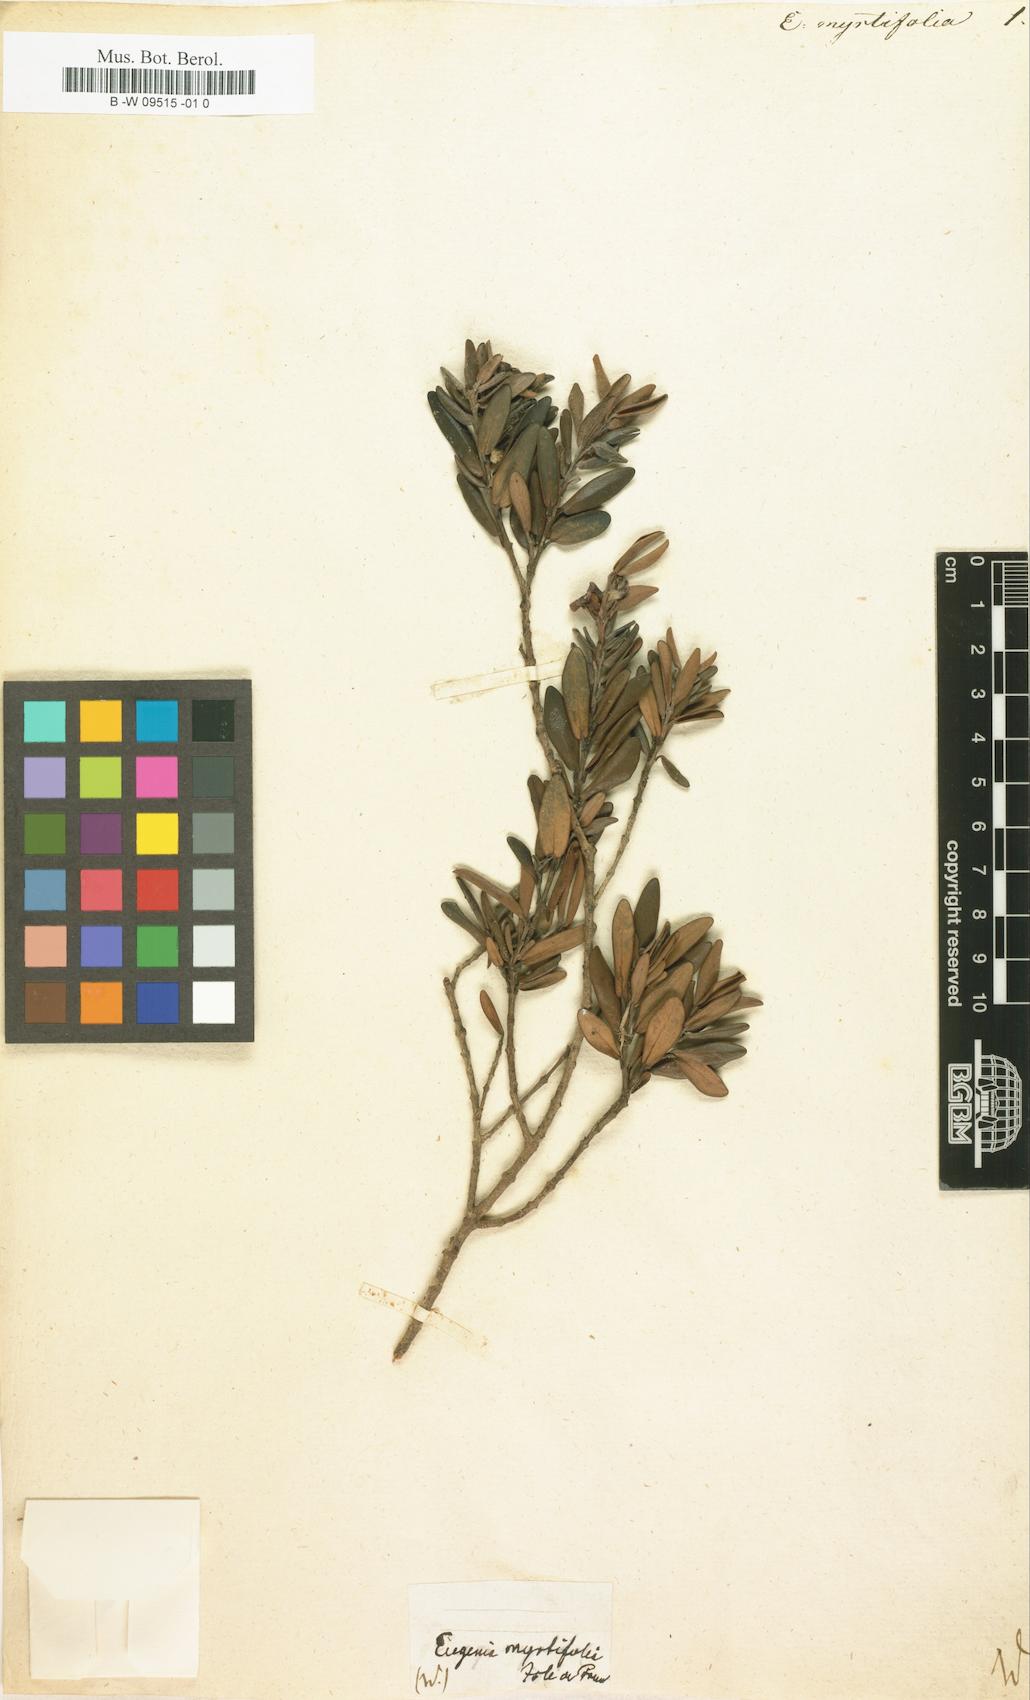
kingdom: Plantae
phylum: Tracheophyta
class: Magnoliopsida
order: Myrtales
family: Myrtaceae
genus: Eugenia
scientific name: Eugenia uniflora
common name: Surinam cherry
